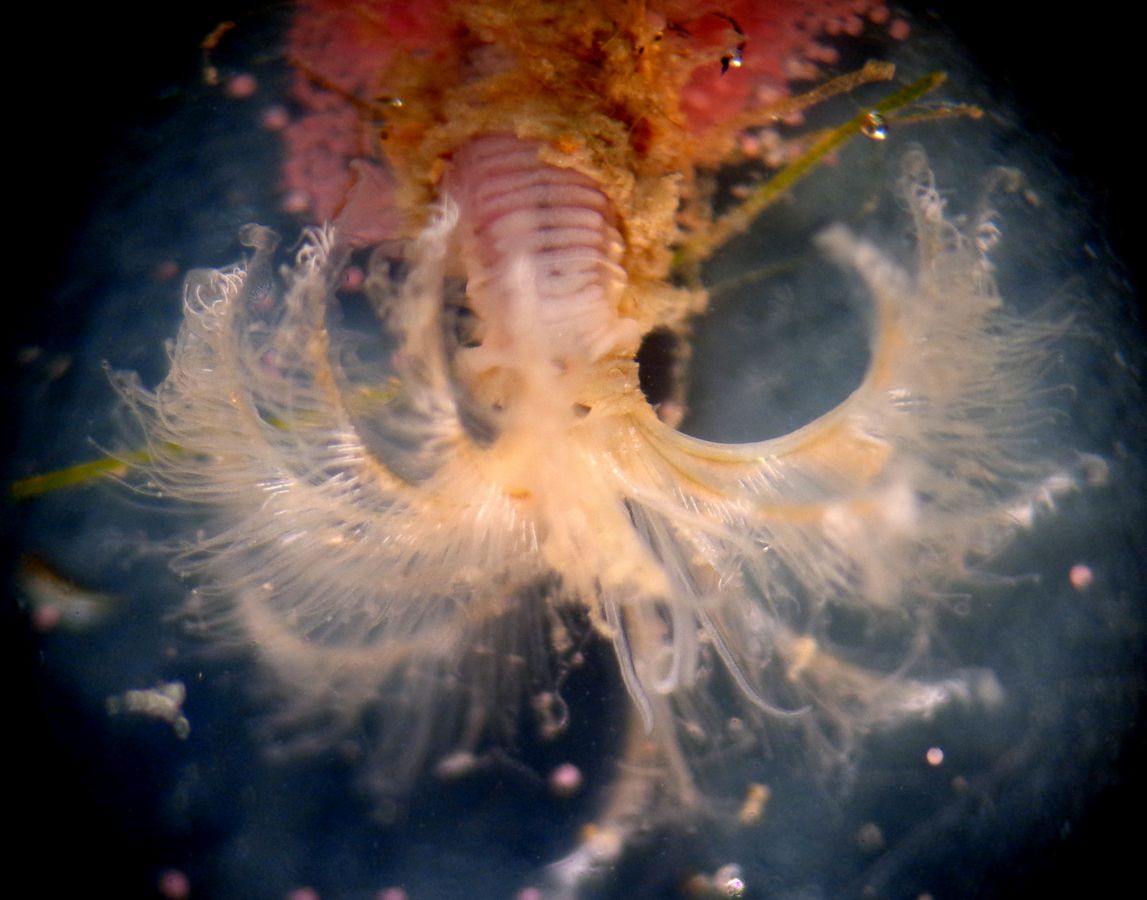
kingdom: Animalia
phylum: Annelida
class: Polychaeta
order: Sabellida
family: Sabellidae
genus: Euchone
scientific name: Euchone analis
